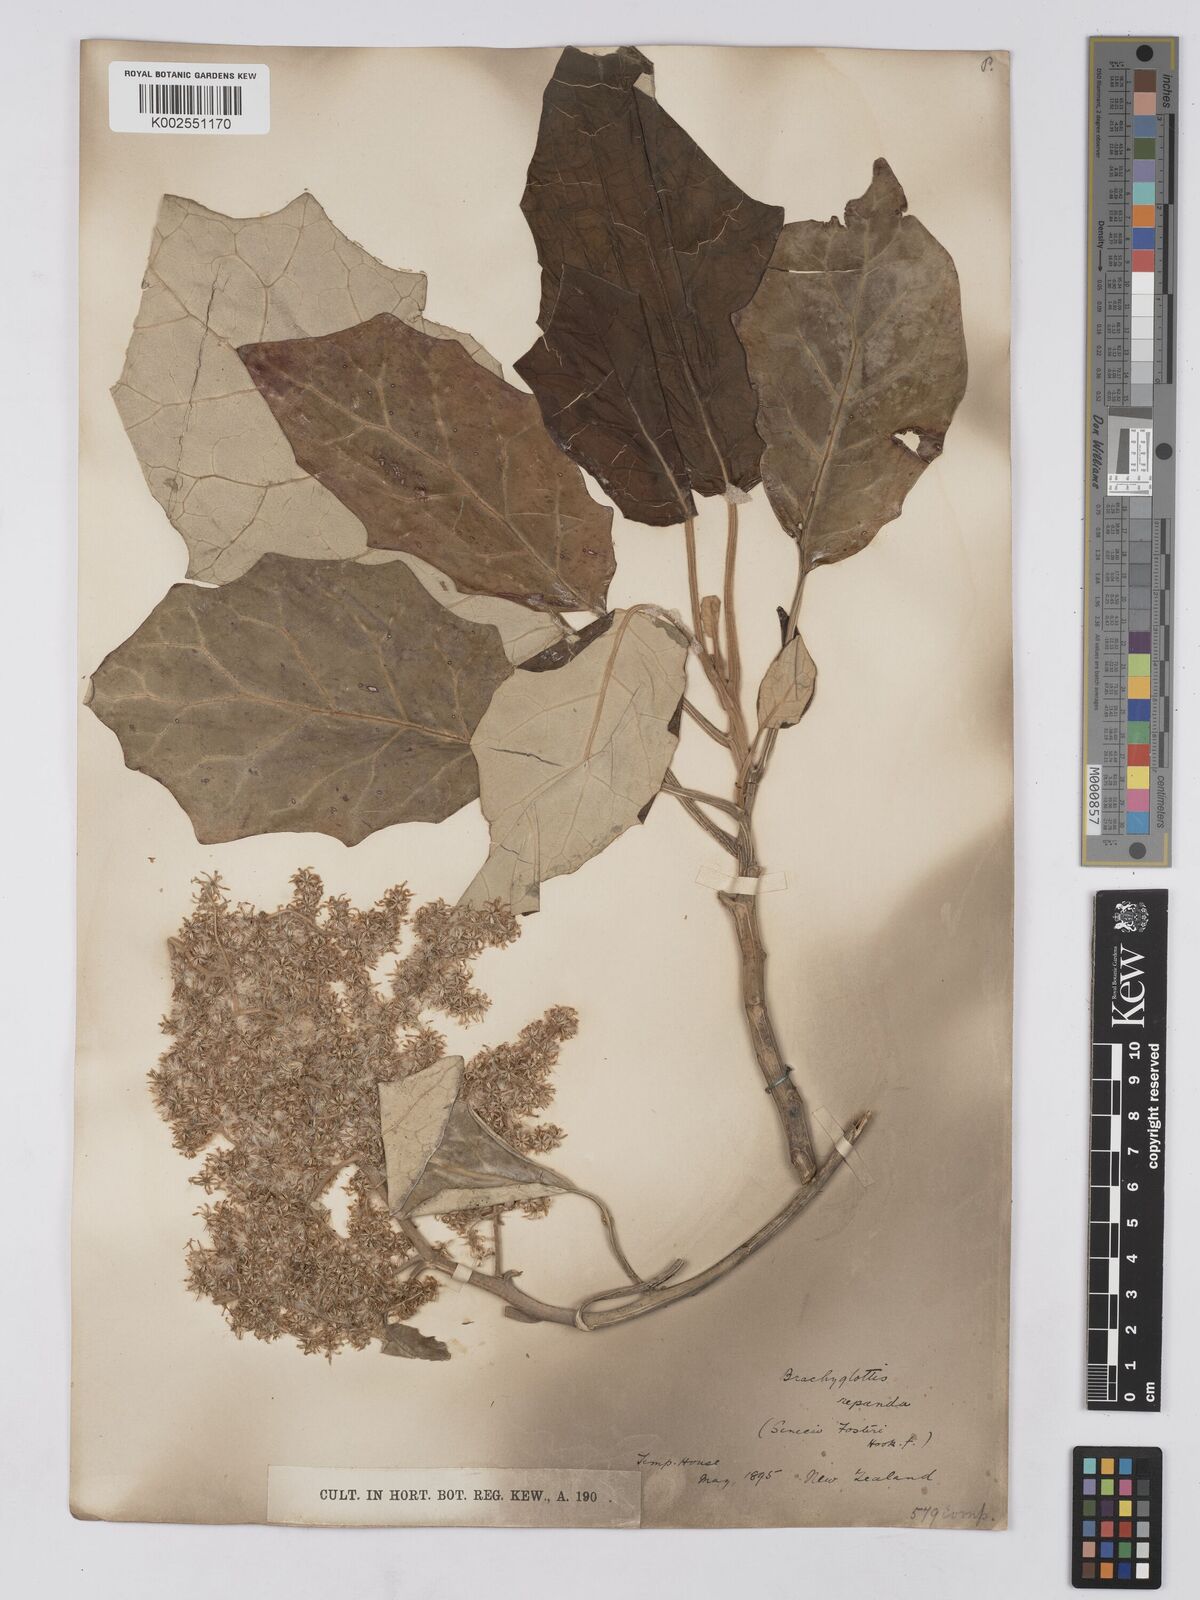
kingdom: Plantae
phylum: Tracheophyta
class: Magnoliopsida
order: Asterales
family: Asteraceae
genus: Brachyglottis
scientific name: Brachyglottis repanda
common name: Hedge ragwort
